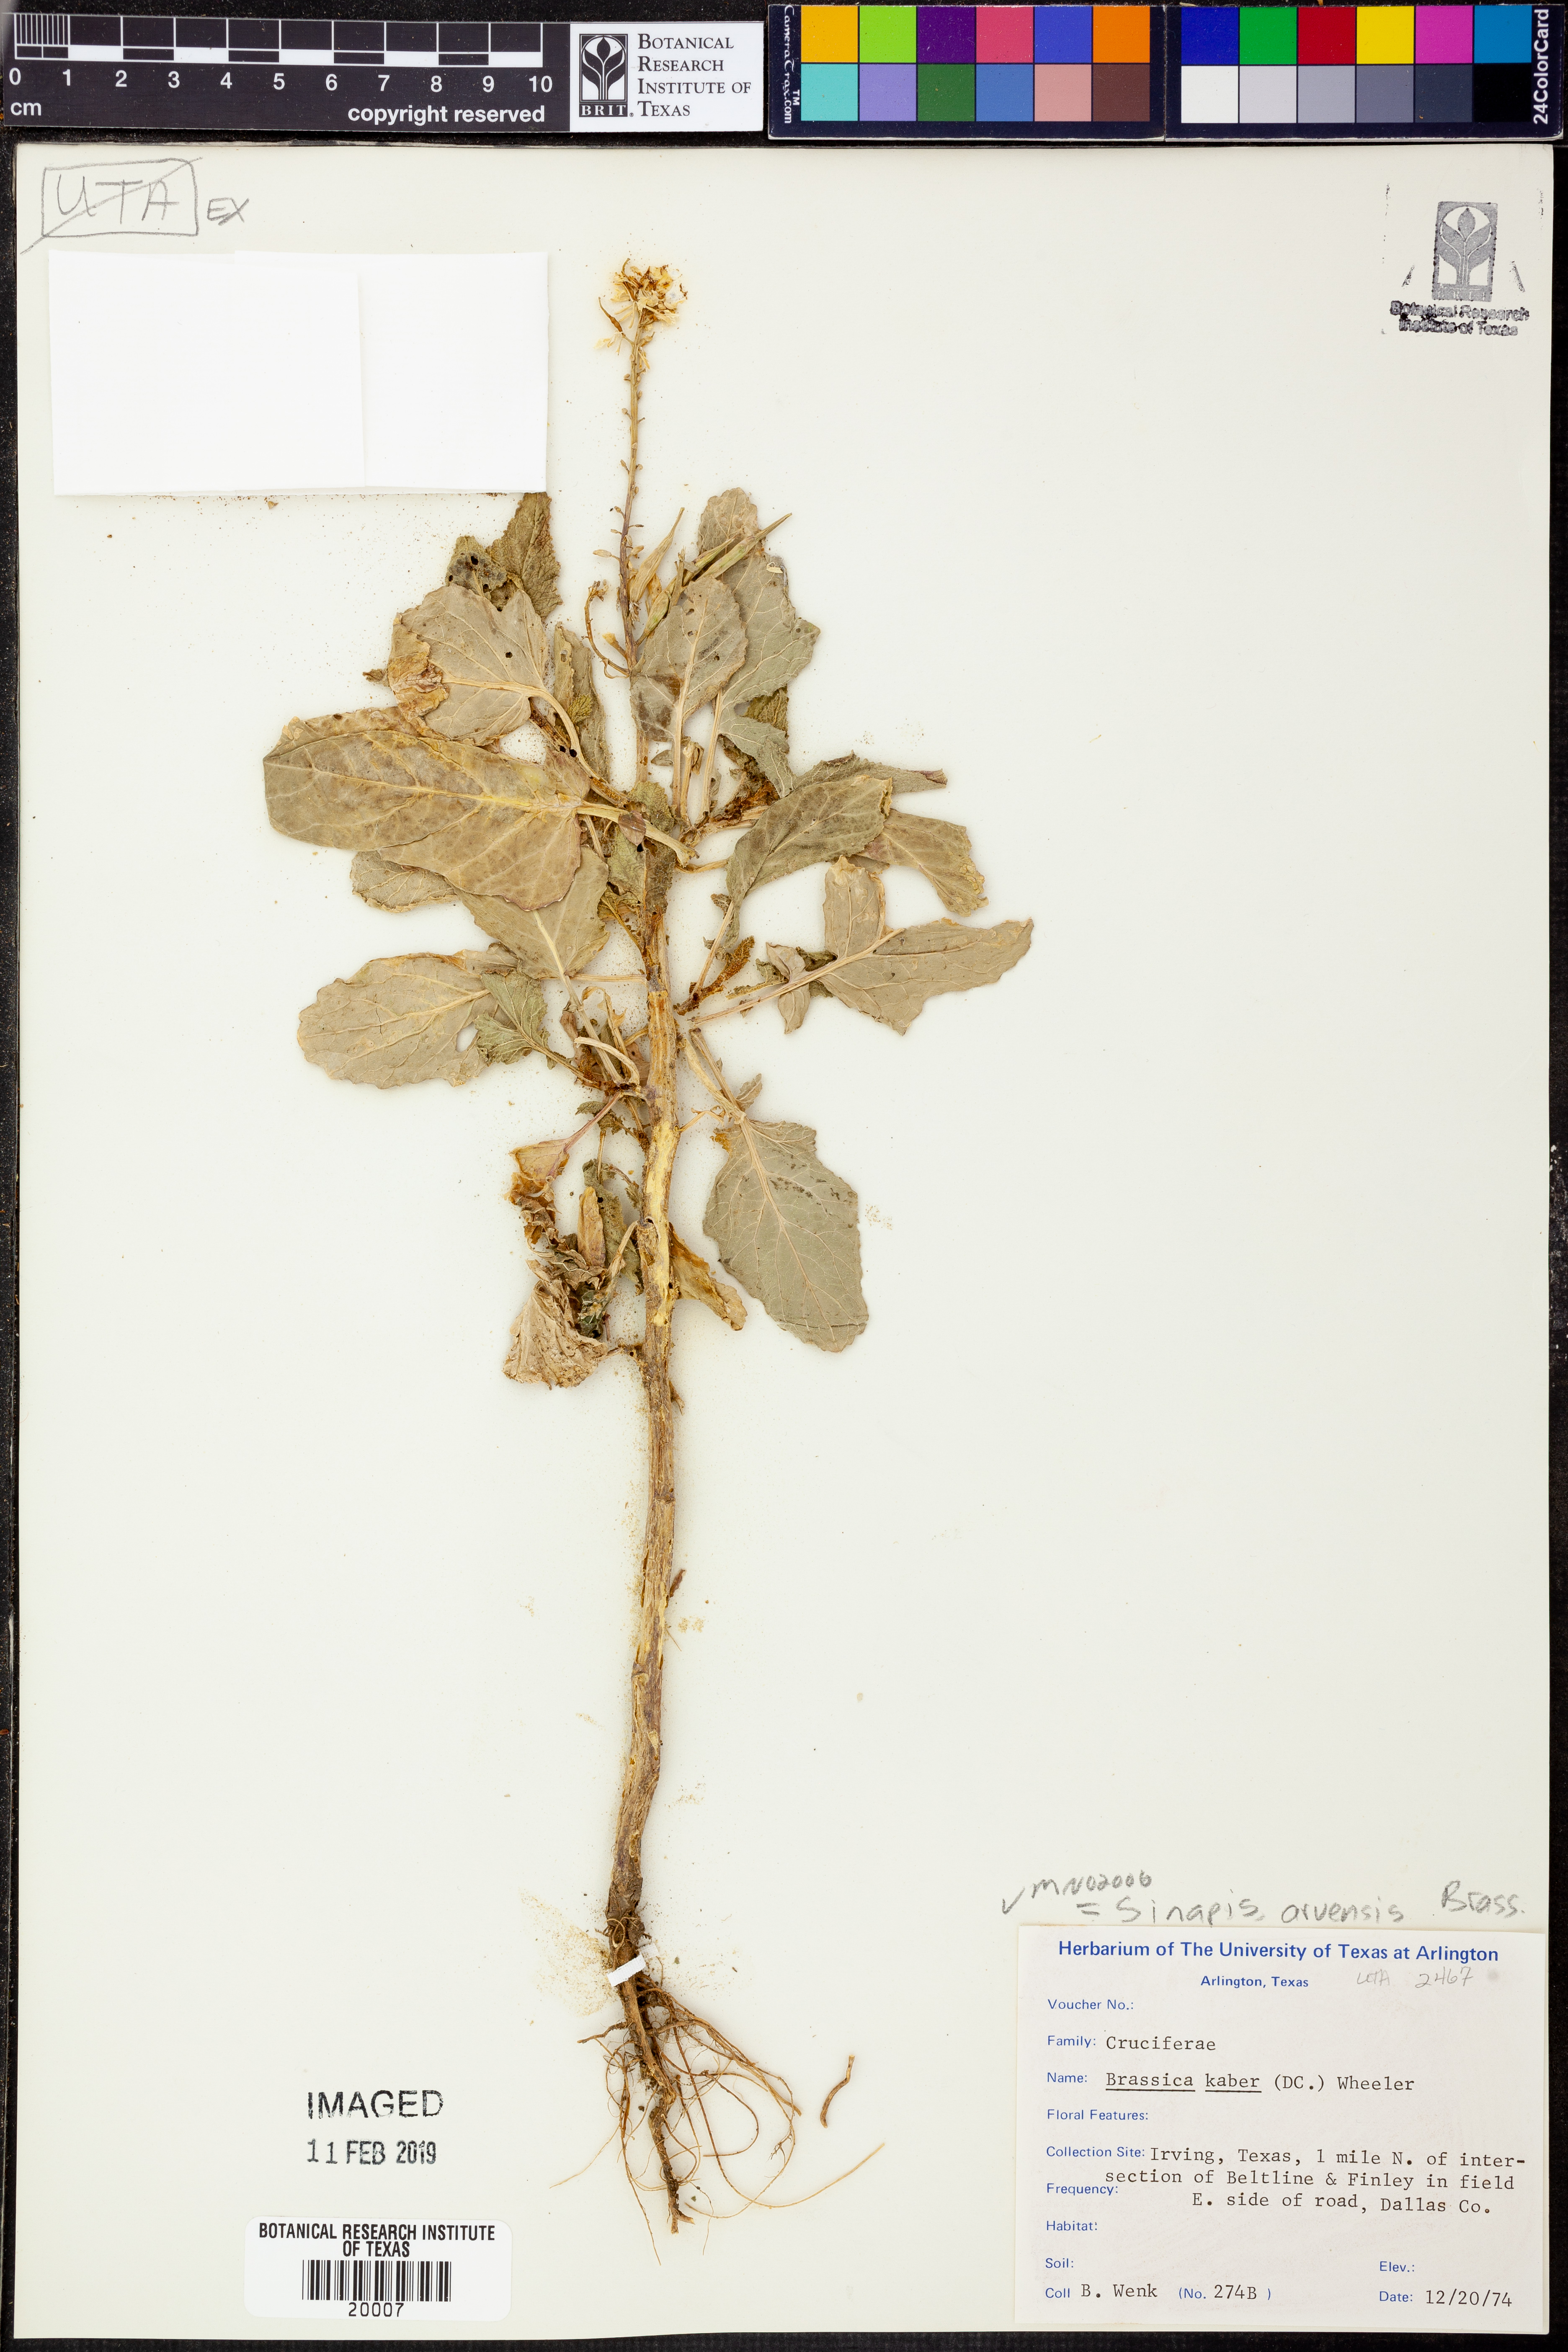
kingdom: Plantae
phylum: Tracheophyta
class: Magnoliopsida
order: Brassicales
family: Brassicaceae
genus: Sinapis
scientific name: Sinapis arvensis
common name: Charlock
